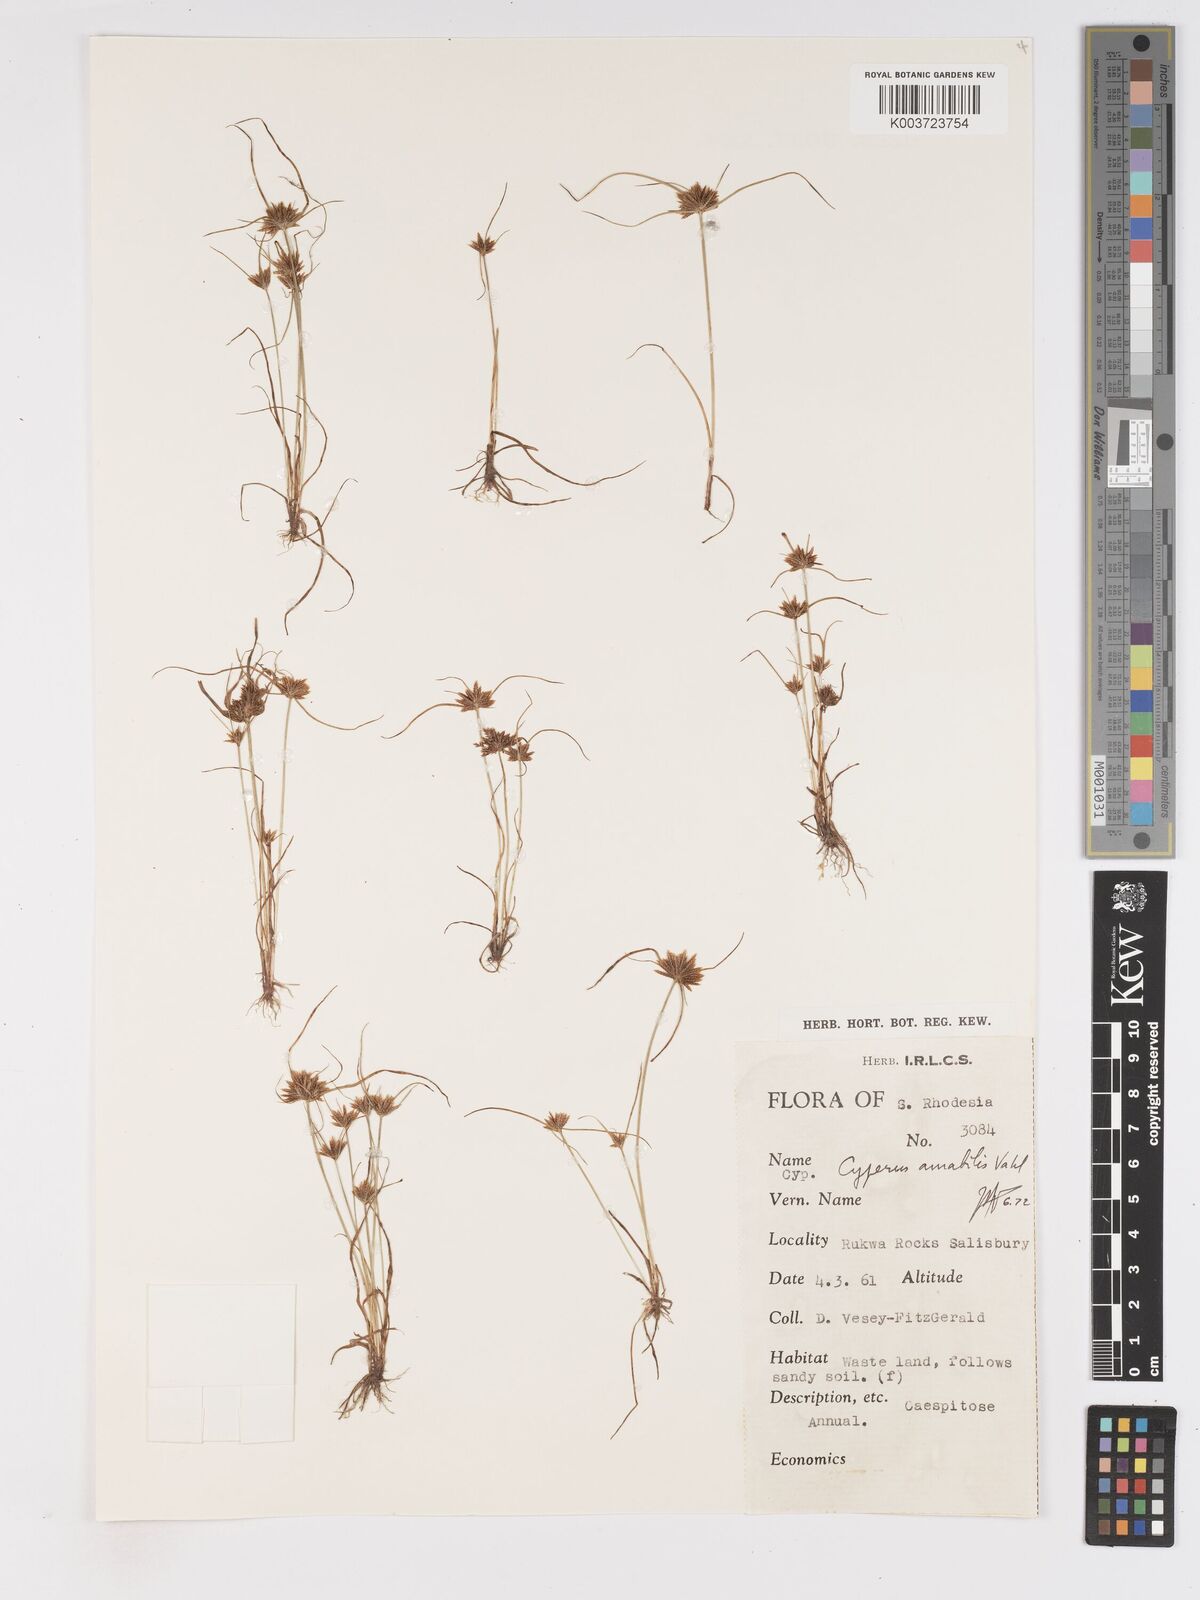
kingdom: Plantae
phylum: Tracheophyta
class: Liliopsida
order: Poales
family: Cyperaceae
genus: Cyperus
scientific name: Cyperus amabilis
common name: Foothill flat sedge
